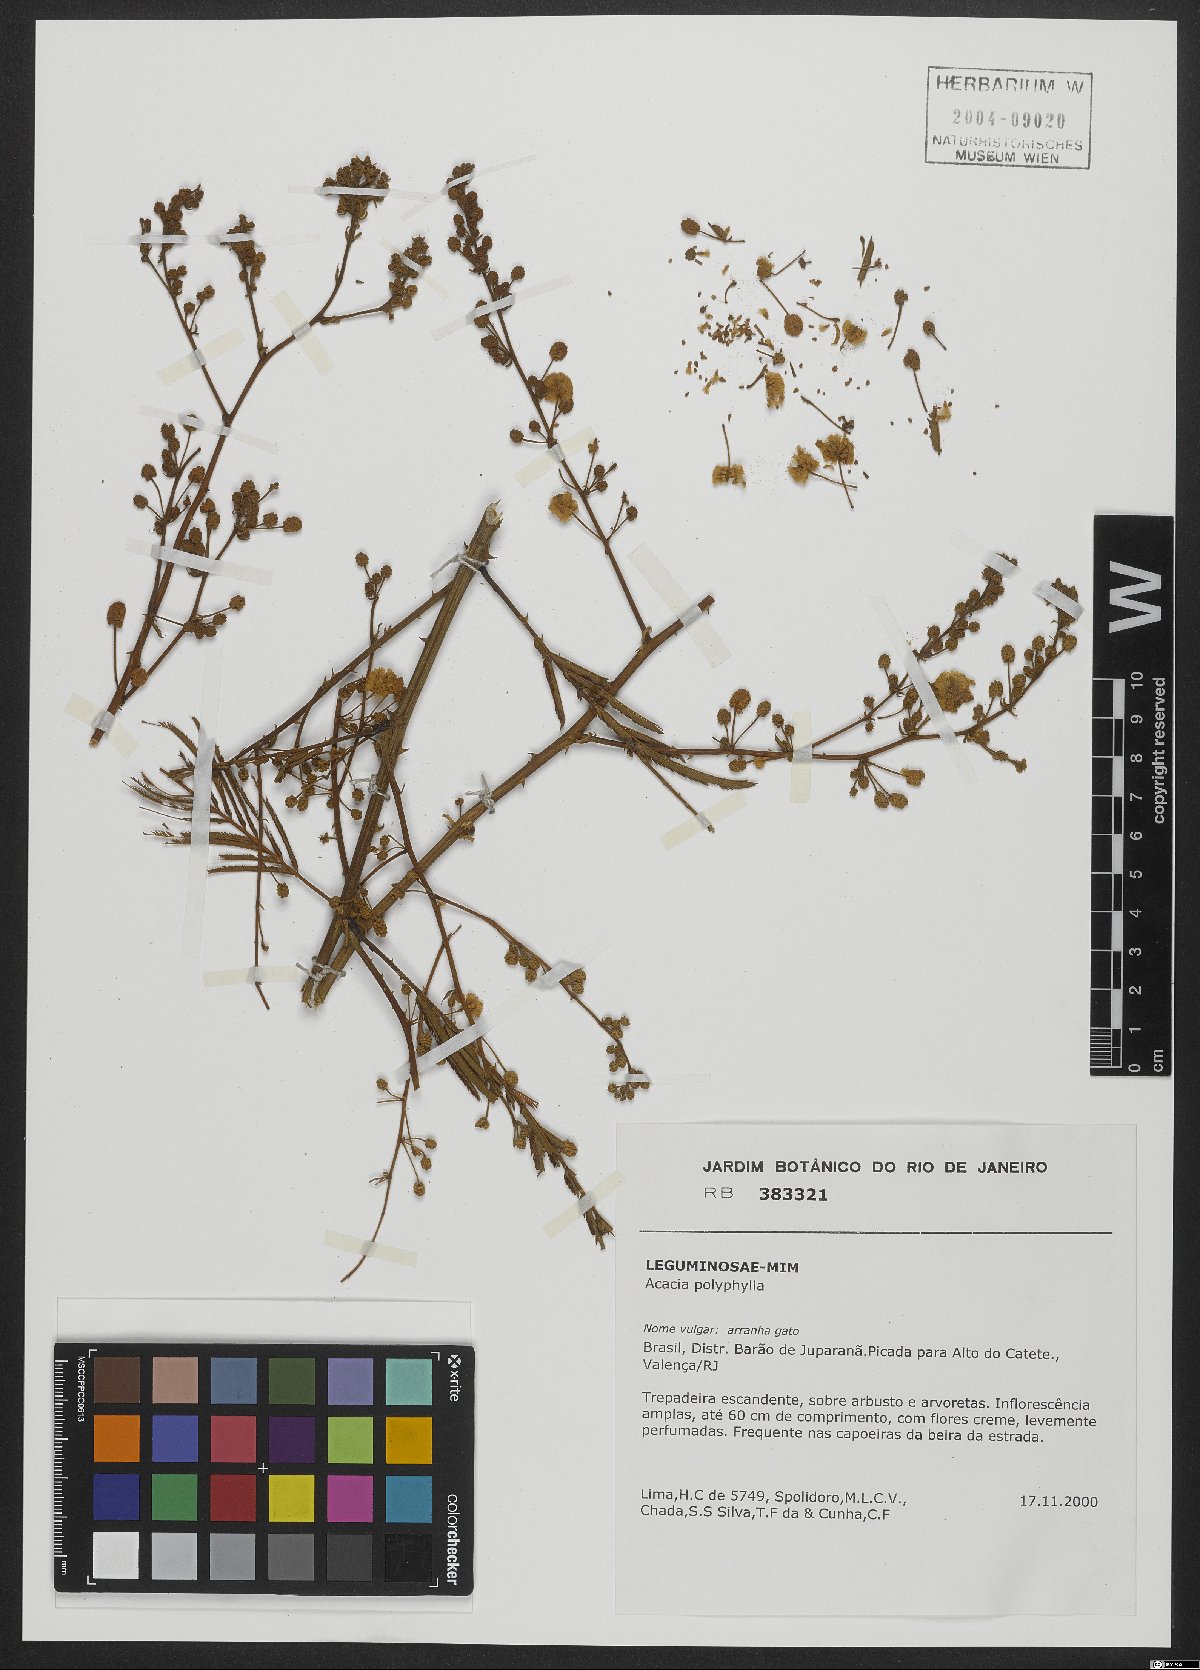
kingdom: Plantae
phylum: Tracheophyta
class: Magnoliopsida
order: Fabales
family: Fabaceae
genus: Senegalia
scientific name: Senegalia polyphylla
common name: White-tamarind
